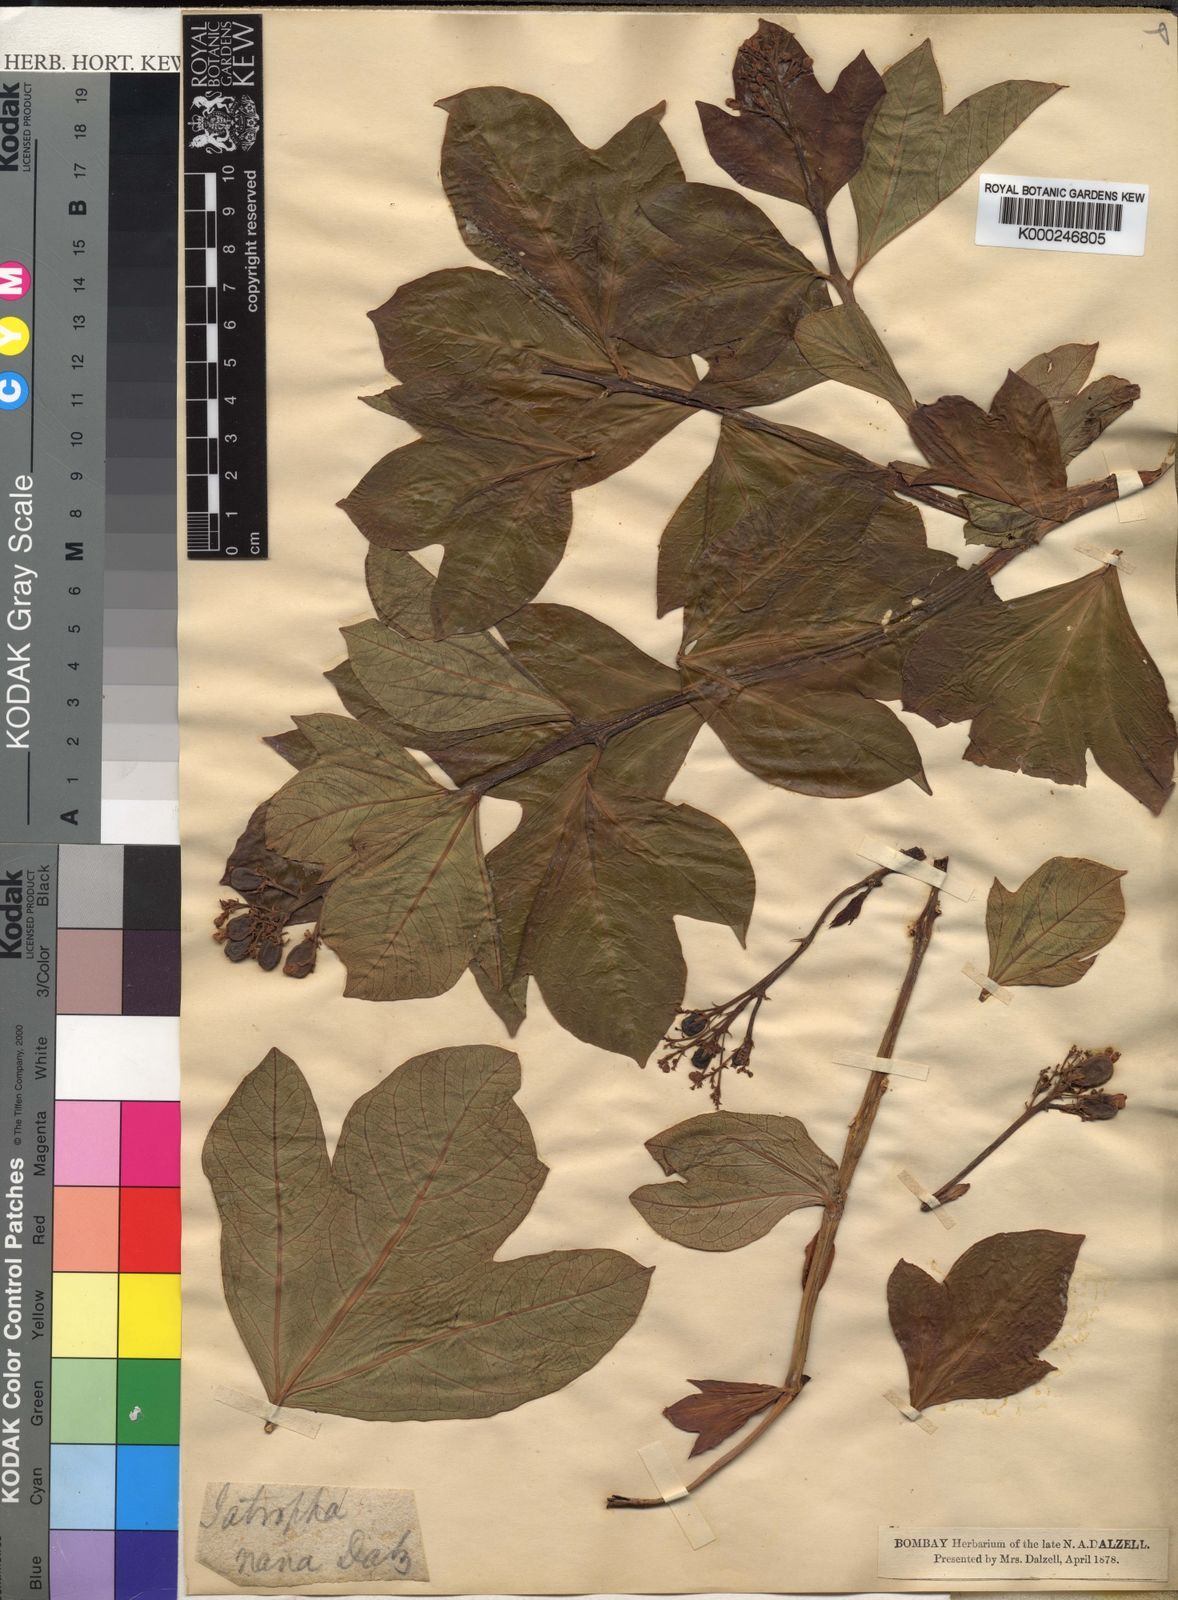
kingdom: Plantae
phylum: Tracheophyta
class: Magnoliopsida
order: Malpighiales
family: Euphorbiaceae
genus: Jatropha
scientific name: Jatropha nana
